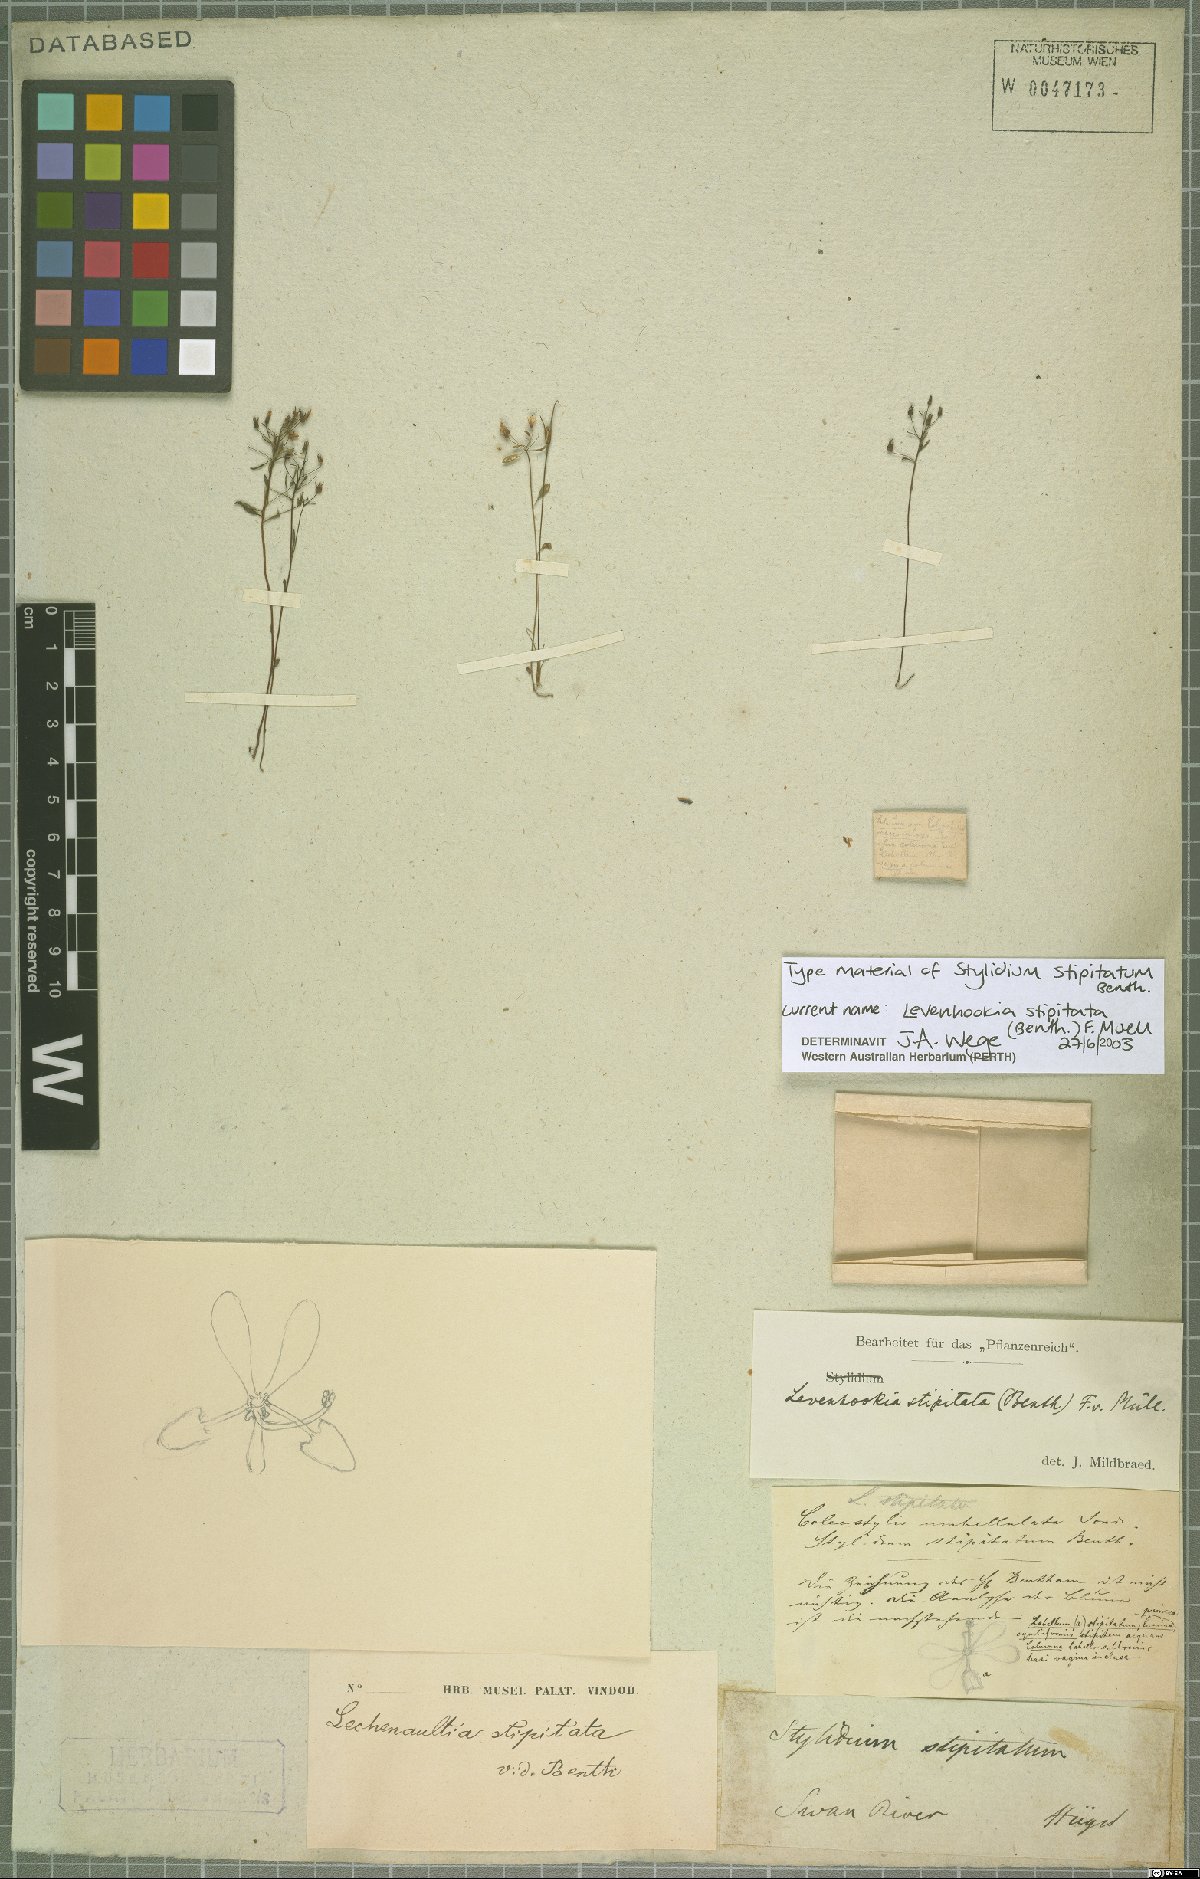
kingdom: Plantae
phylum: Tracheophyta
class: Magnoliopsida
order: Asterales
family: Stylidiaceae
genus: Levenhookia
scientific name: Levenhookia stipitata
